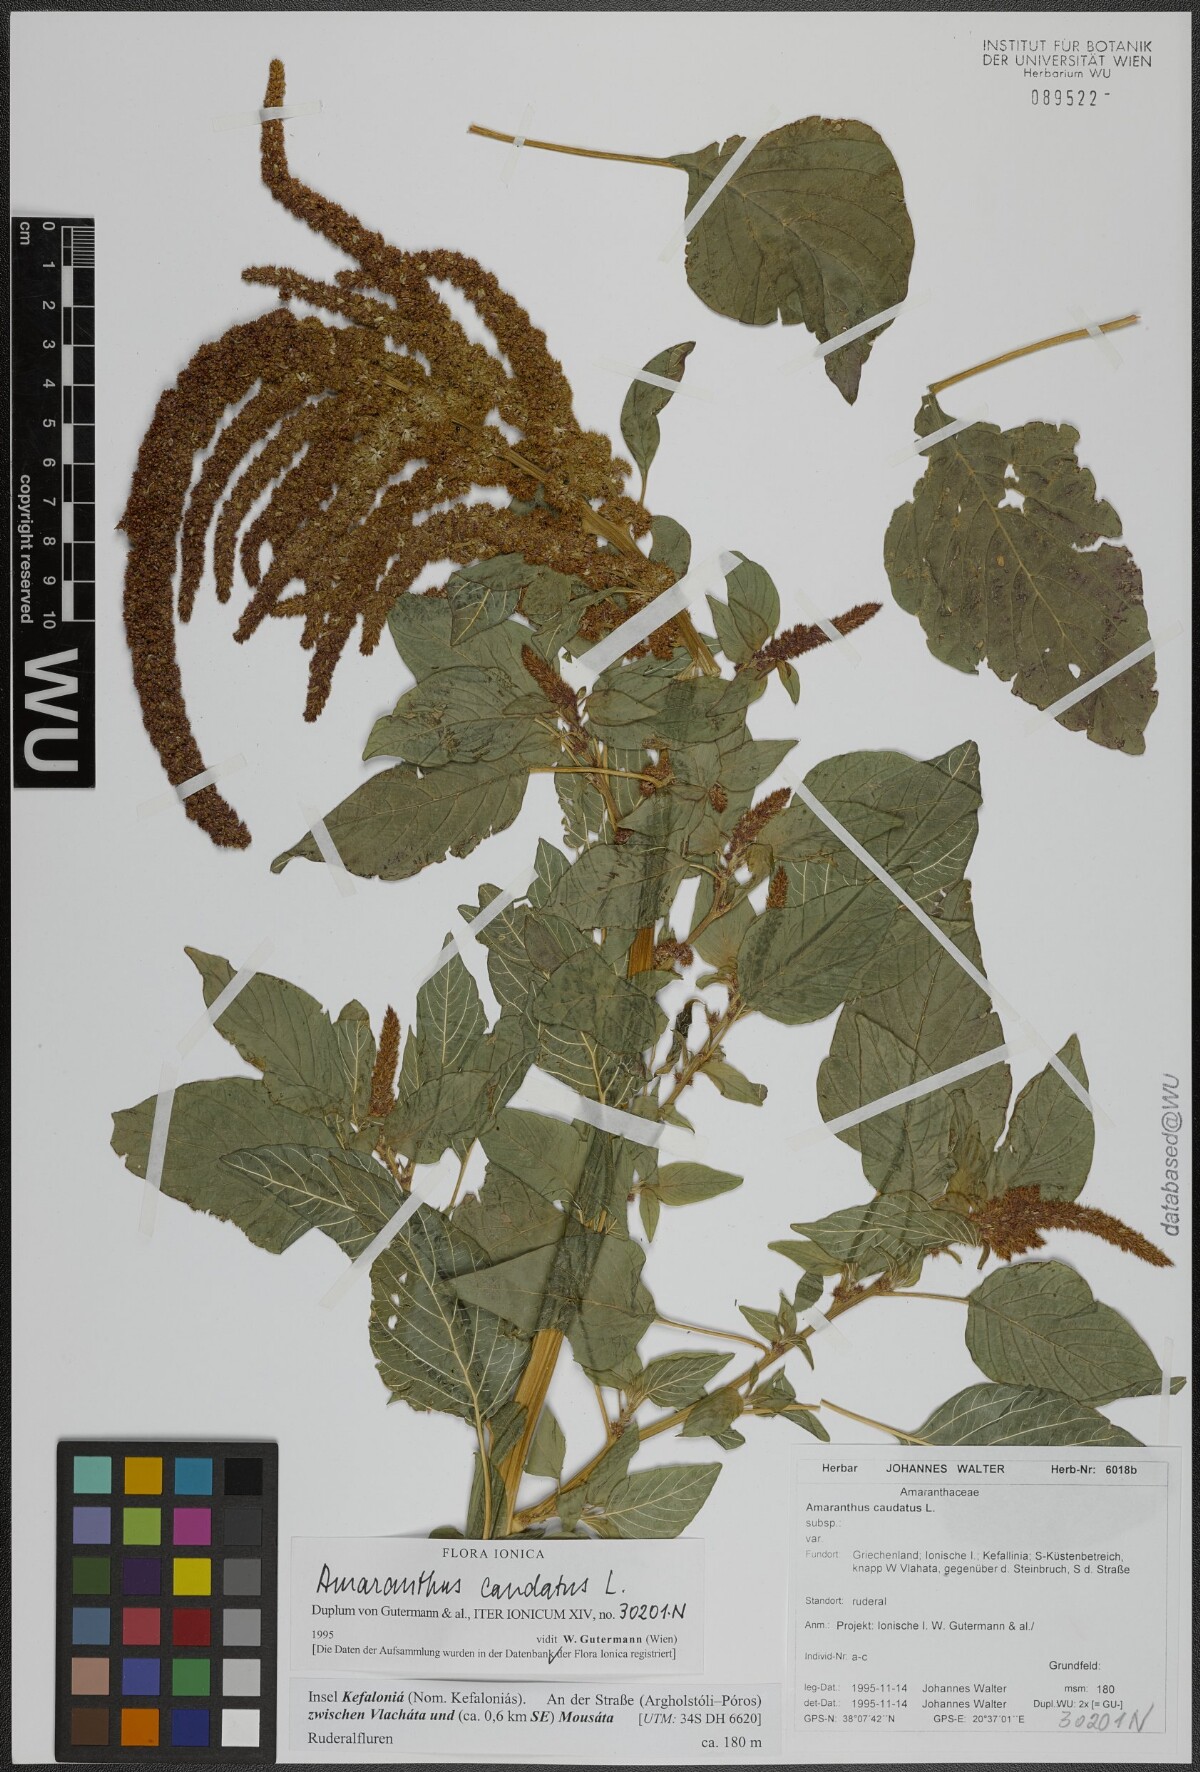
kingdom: Plantae
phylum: Tracheophyta
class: Magnoliopsida
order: Caryophyllales
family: Amaranthaceae
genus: Amaranthus
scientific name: Amaranthus caudatus
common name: Love-lies-bleeding
